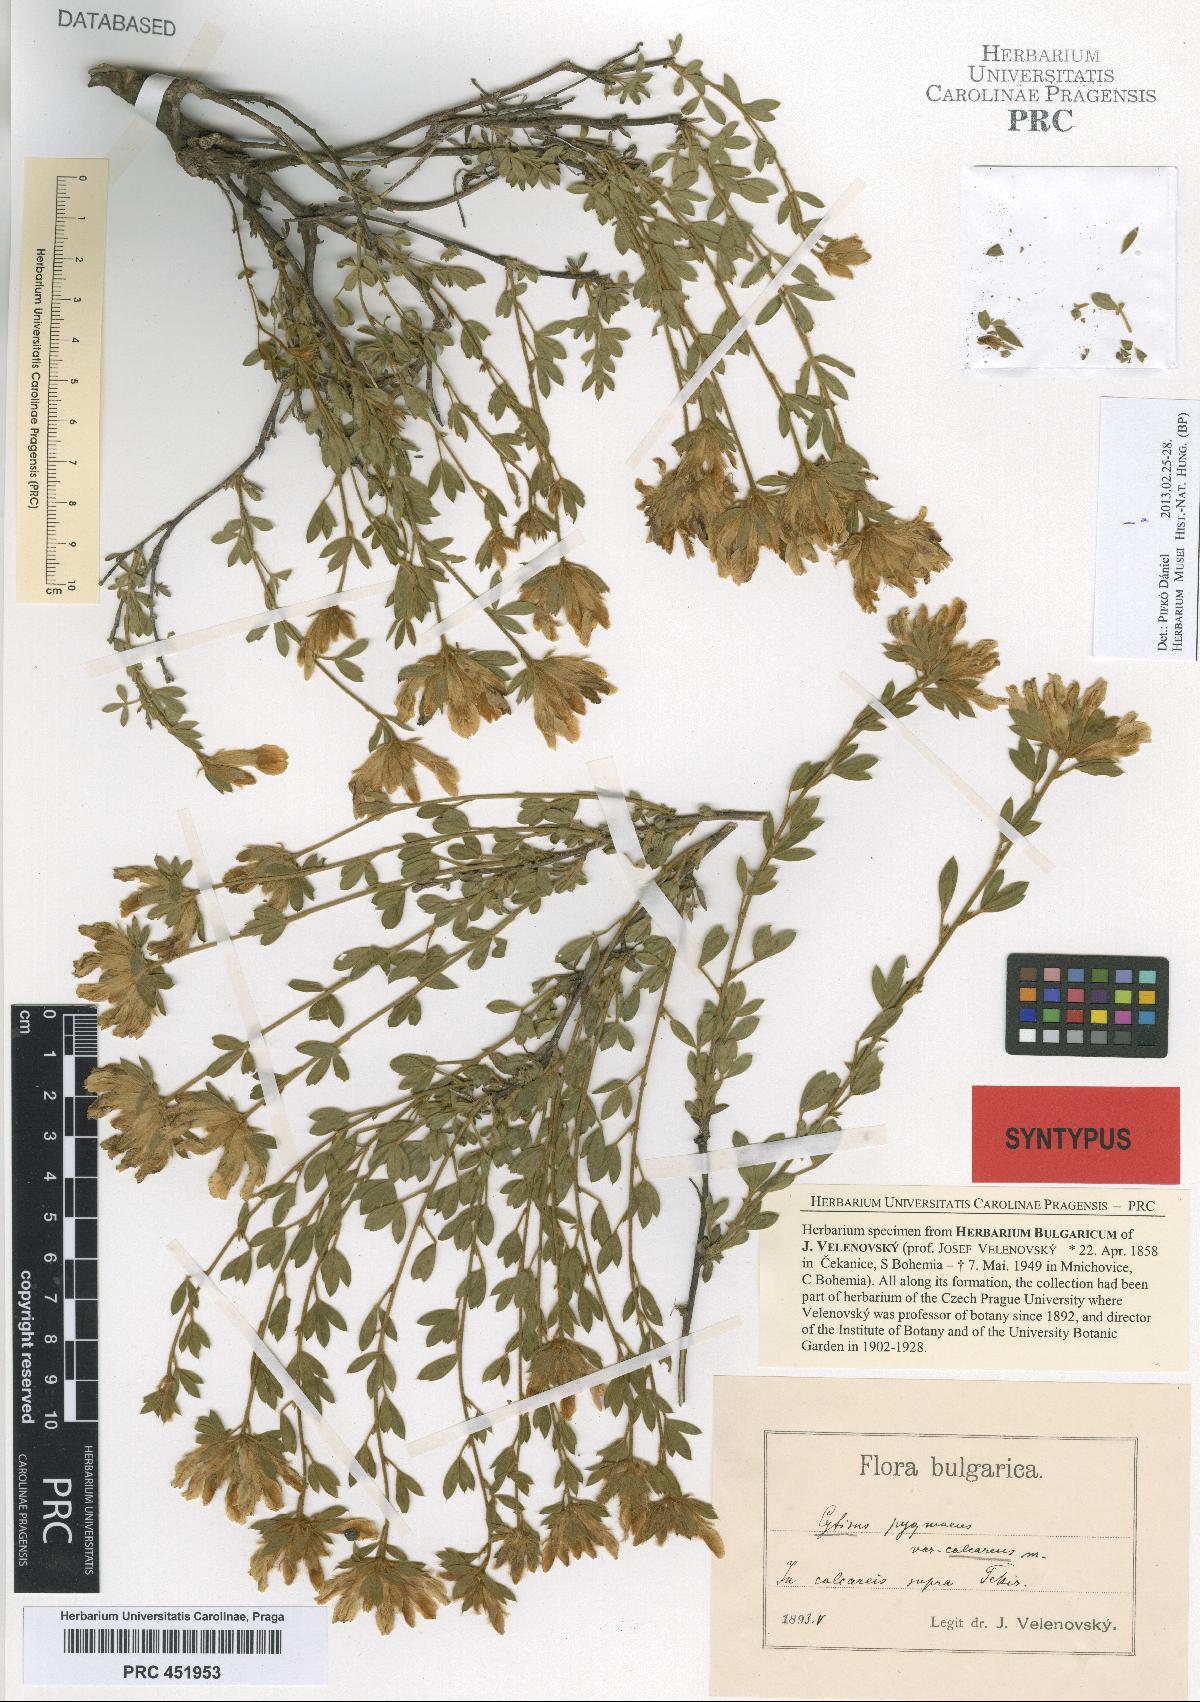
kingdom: Plantae
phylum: Tracheophyta
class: Magnoliopsida
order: Fabales
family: Fabaceae
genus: Chamaecytisus
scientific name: Chamaecytisus calcareus
